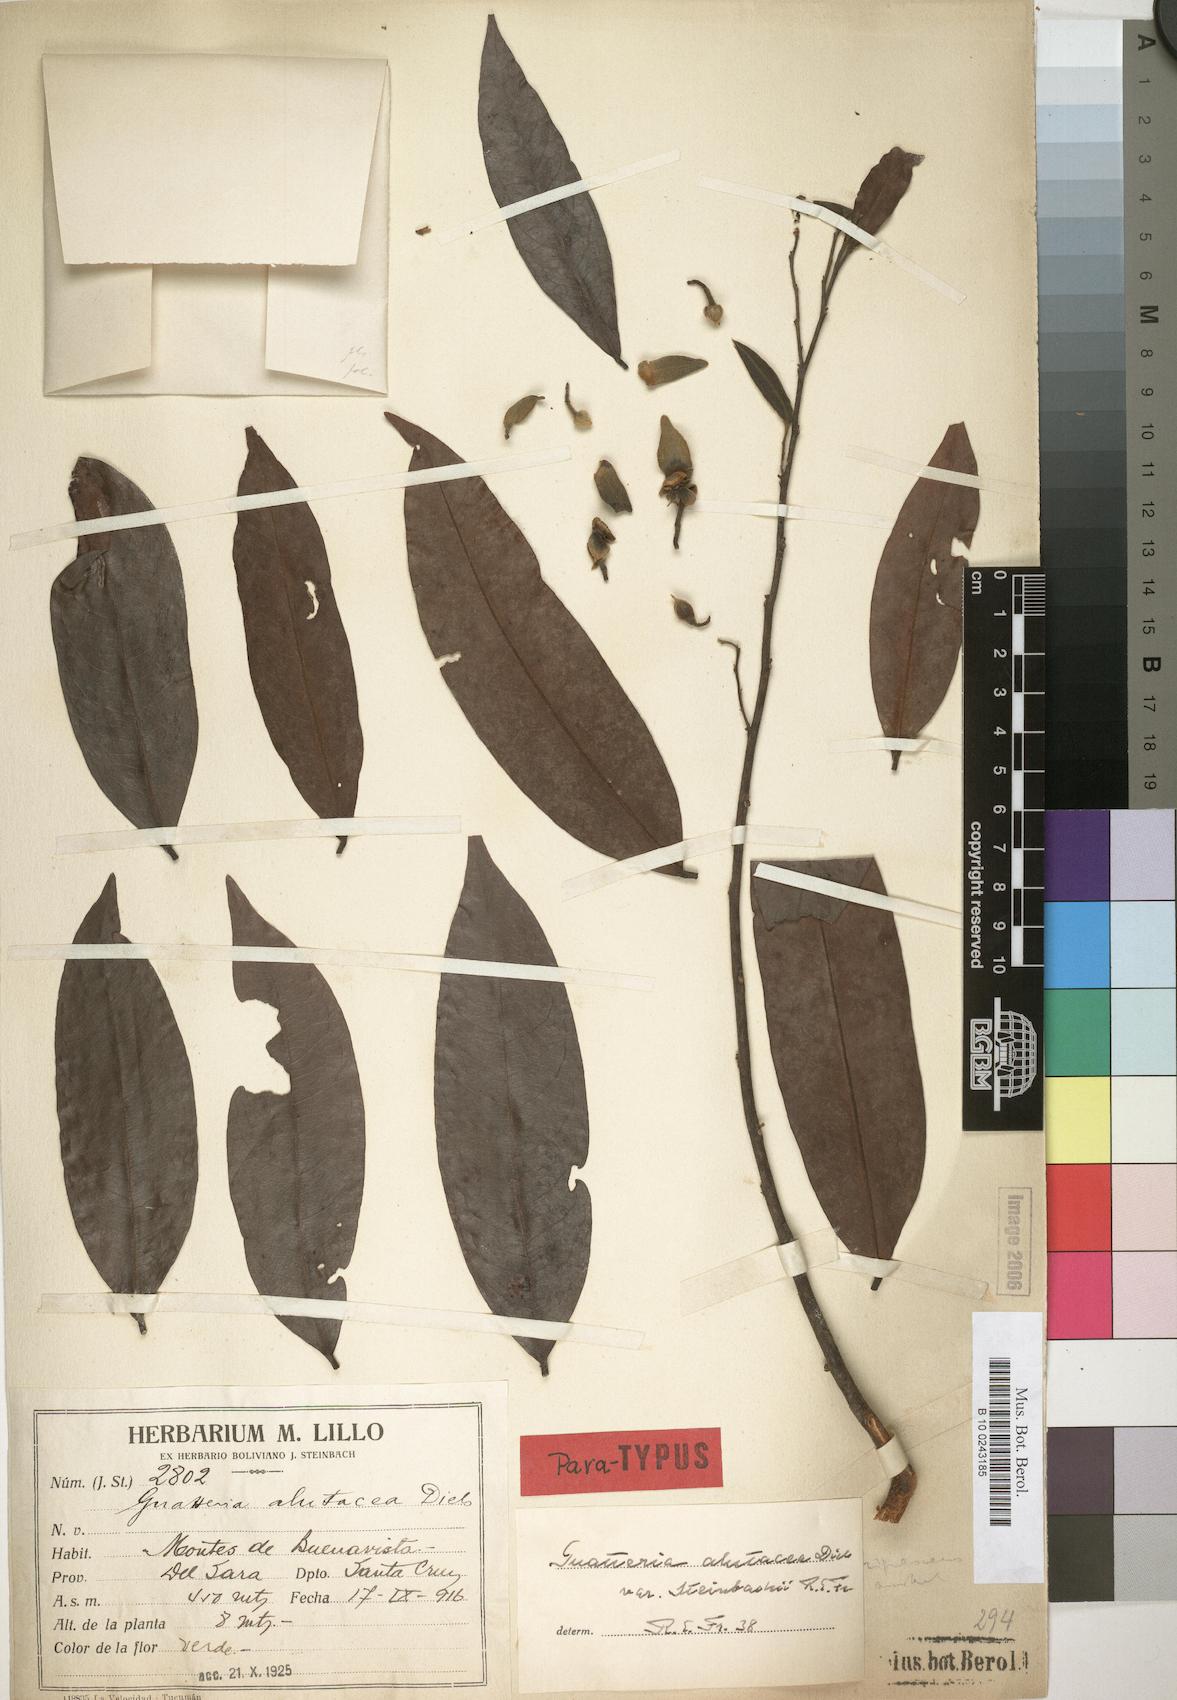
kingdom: Plantae
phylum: Tracheophyta
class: Magnoliopsida
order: Magnoliales
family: Annonaceae
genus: Guatteria
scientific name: Guatteria alutacea
